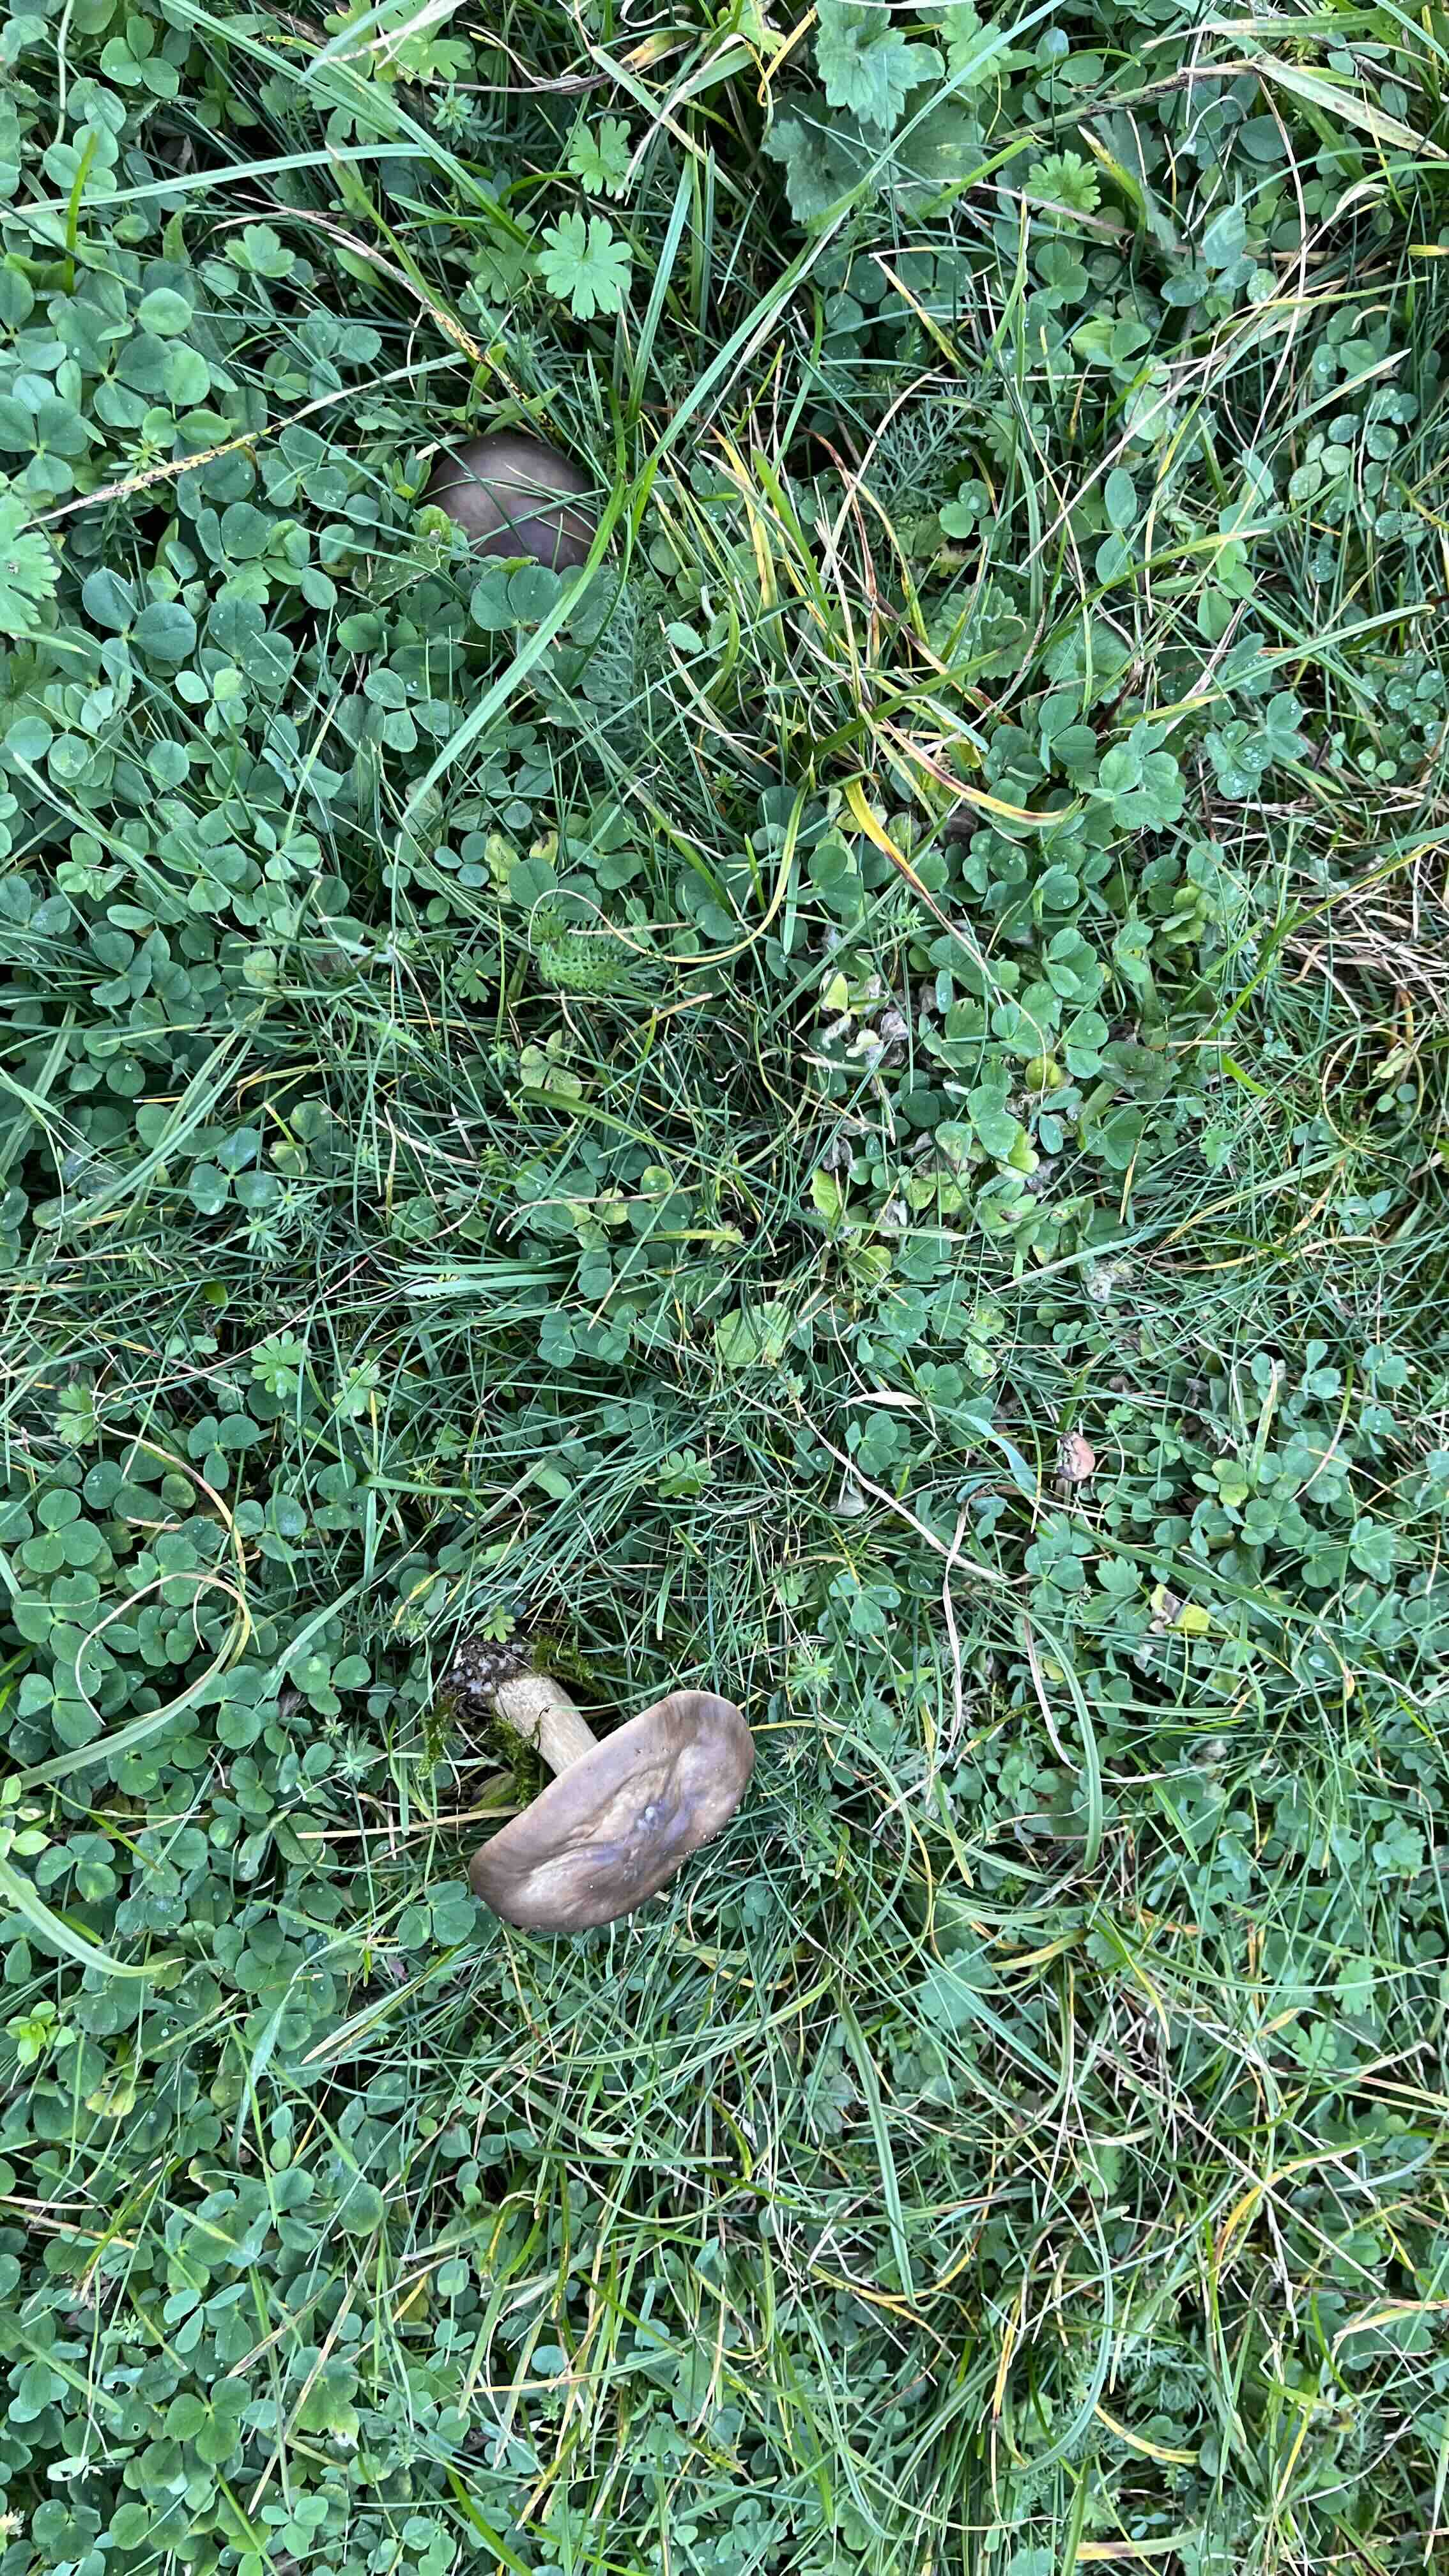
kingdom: Fungi
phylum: Basidiomycota
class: Agaricomycetes
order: Agaricales
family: Tricholomataceae
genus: Melanoleuca
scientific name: Melanoleuca
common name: munkehat
